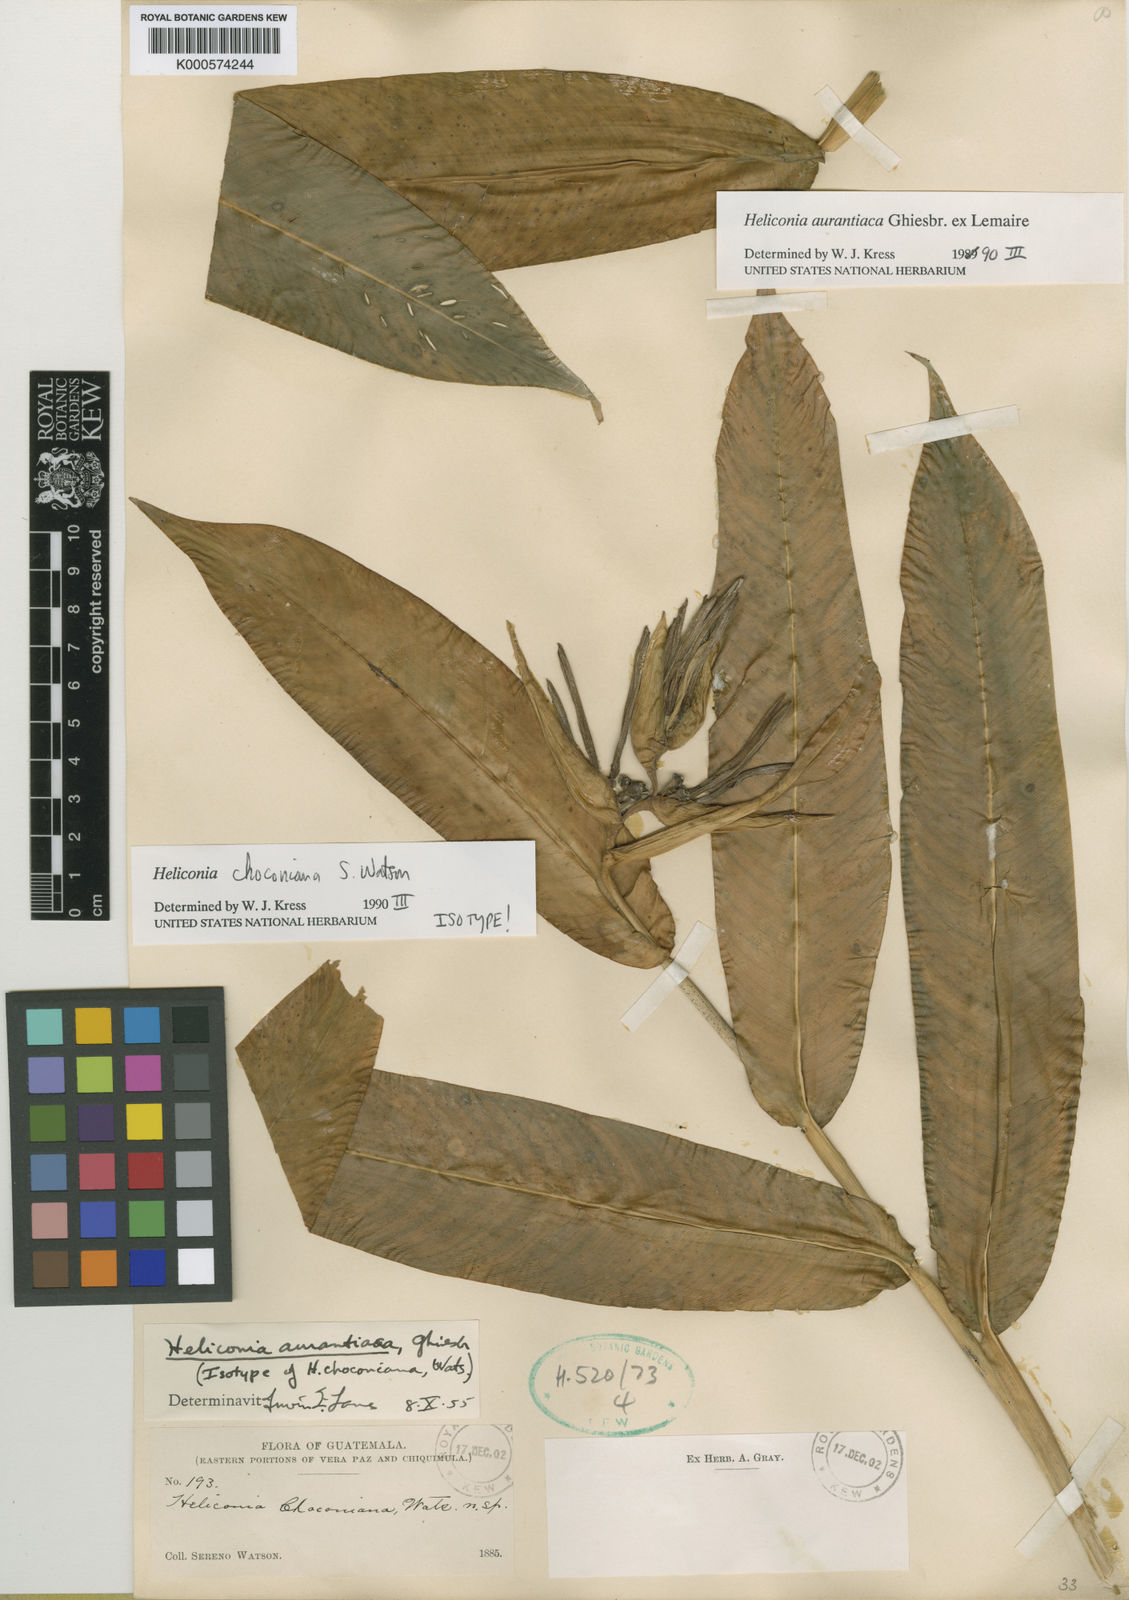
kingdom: Plantae
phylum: Tracheophyta
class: Liliopsida
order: Zingiberales
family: Heliconiaceae
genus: Heliconia
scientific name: Heliconia
